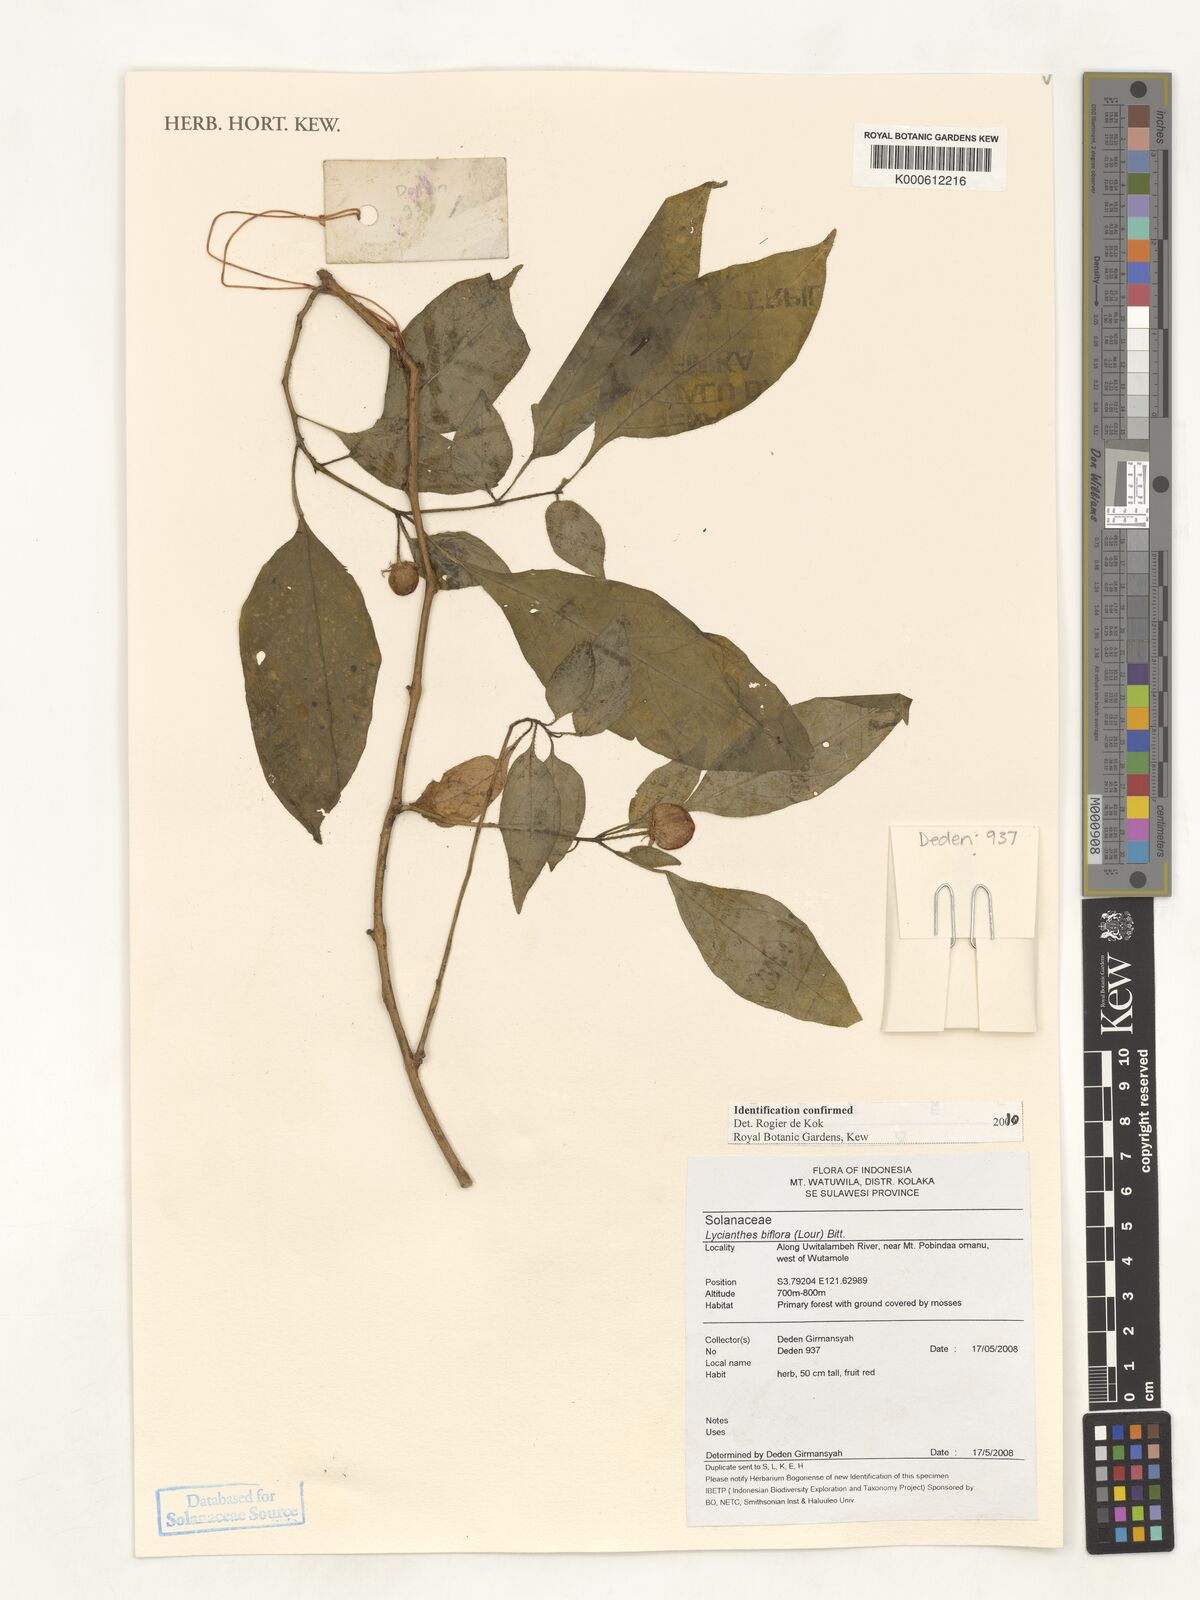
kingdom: Plantae
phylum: Tracheophyta
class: Magnoliopsida
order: Solanales
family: Solanaceae
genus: Lycianthes
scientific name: Lycianthes biflora
